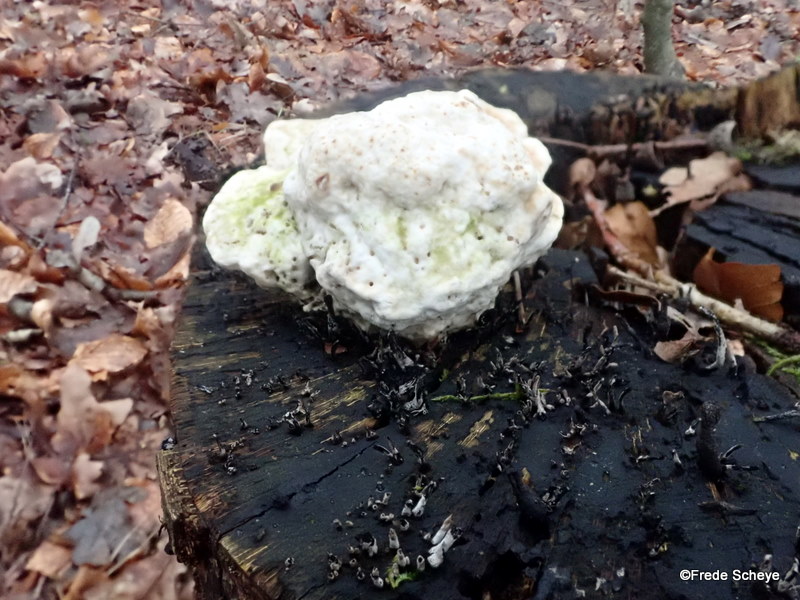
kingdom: Fungi
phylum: Ascomycota
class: Sordariomycetes
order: Xylariales
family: Xylariaceae
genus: Xylaria
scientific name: Xylaria hypoxylon
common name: grenet stødsvamp
